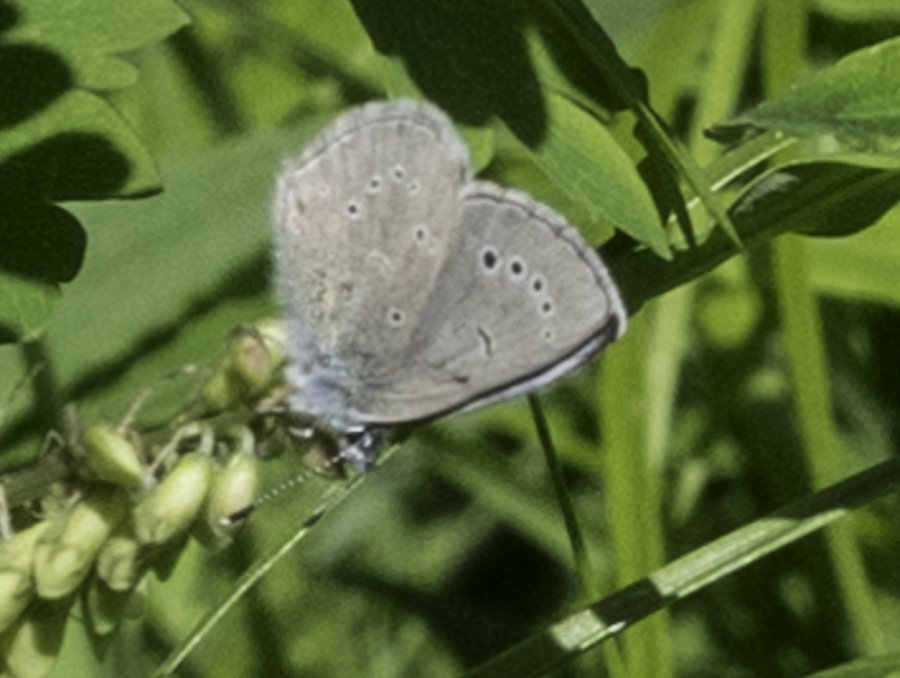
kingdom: Animalia
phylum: Arthropoda
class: Insecta
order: Lepidoptera
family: Lycaenidae
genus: Glaucopsyche
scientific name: Glaucopsyche lygdamus
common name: Silvery Blue
